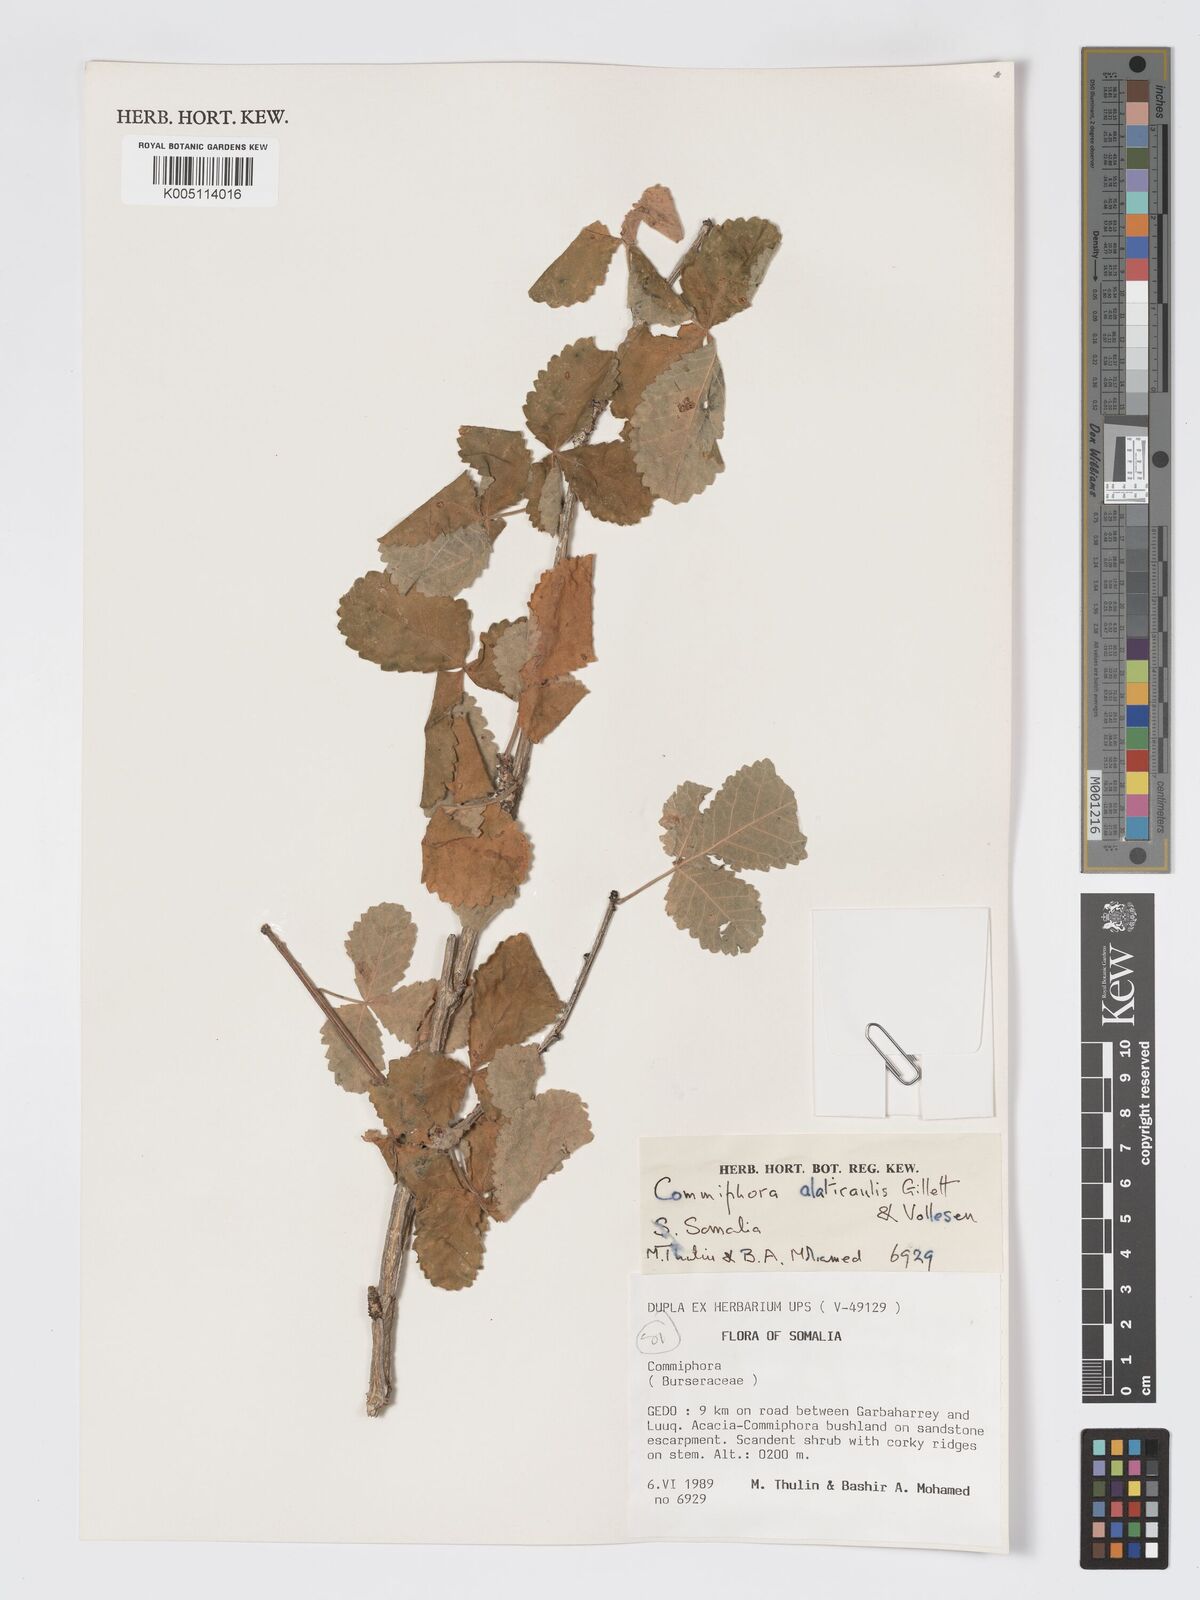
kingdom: Plantae
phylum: Tracheophyta
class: Magnoliopsida
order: Sapindales
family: Burseraceae
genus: Commiphora
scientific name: Commiphora alaticaulis
